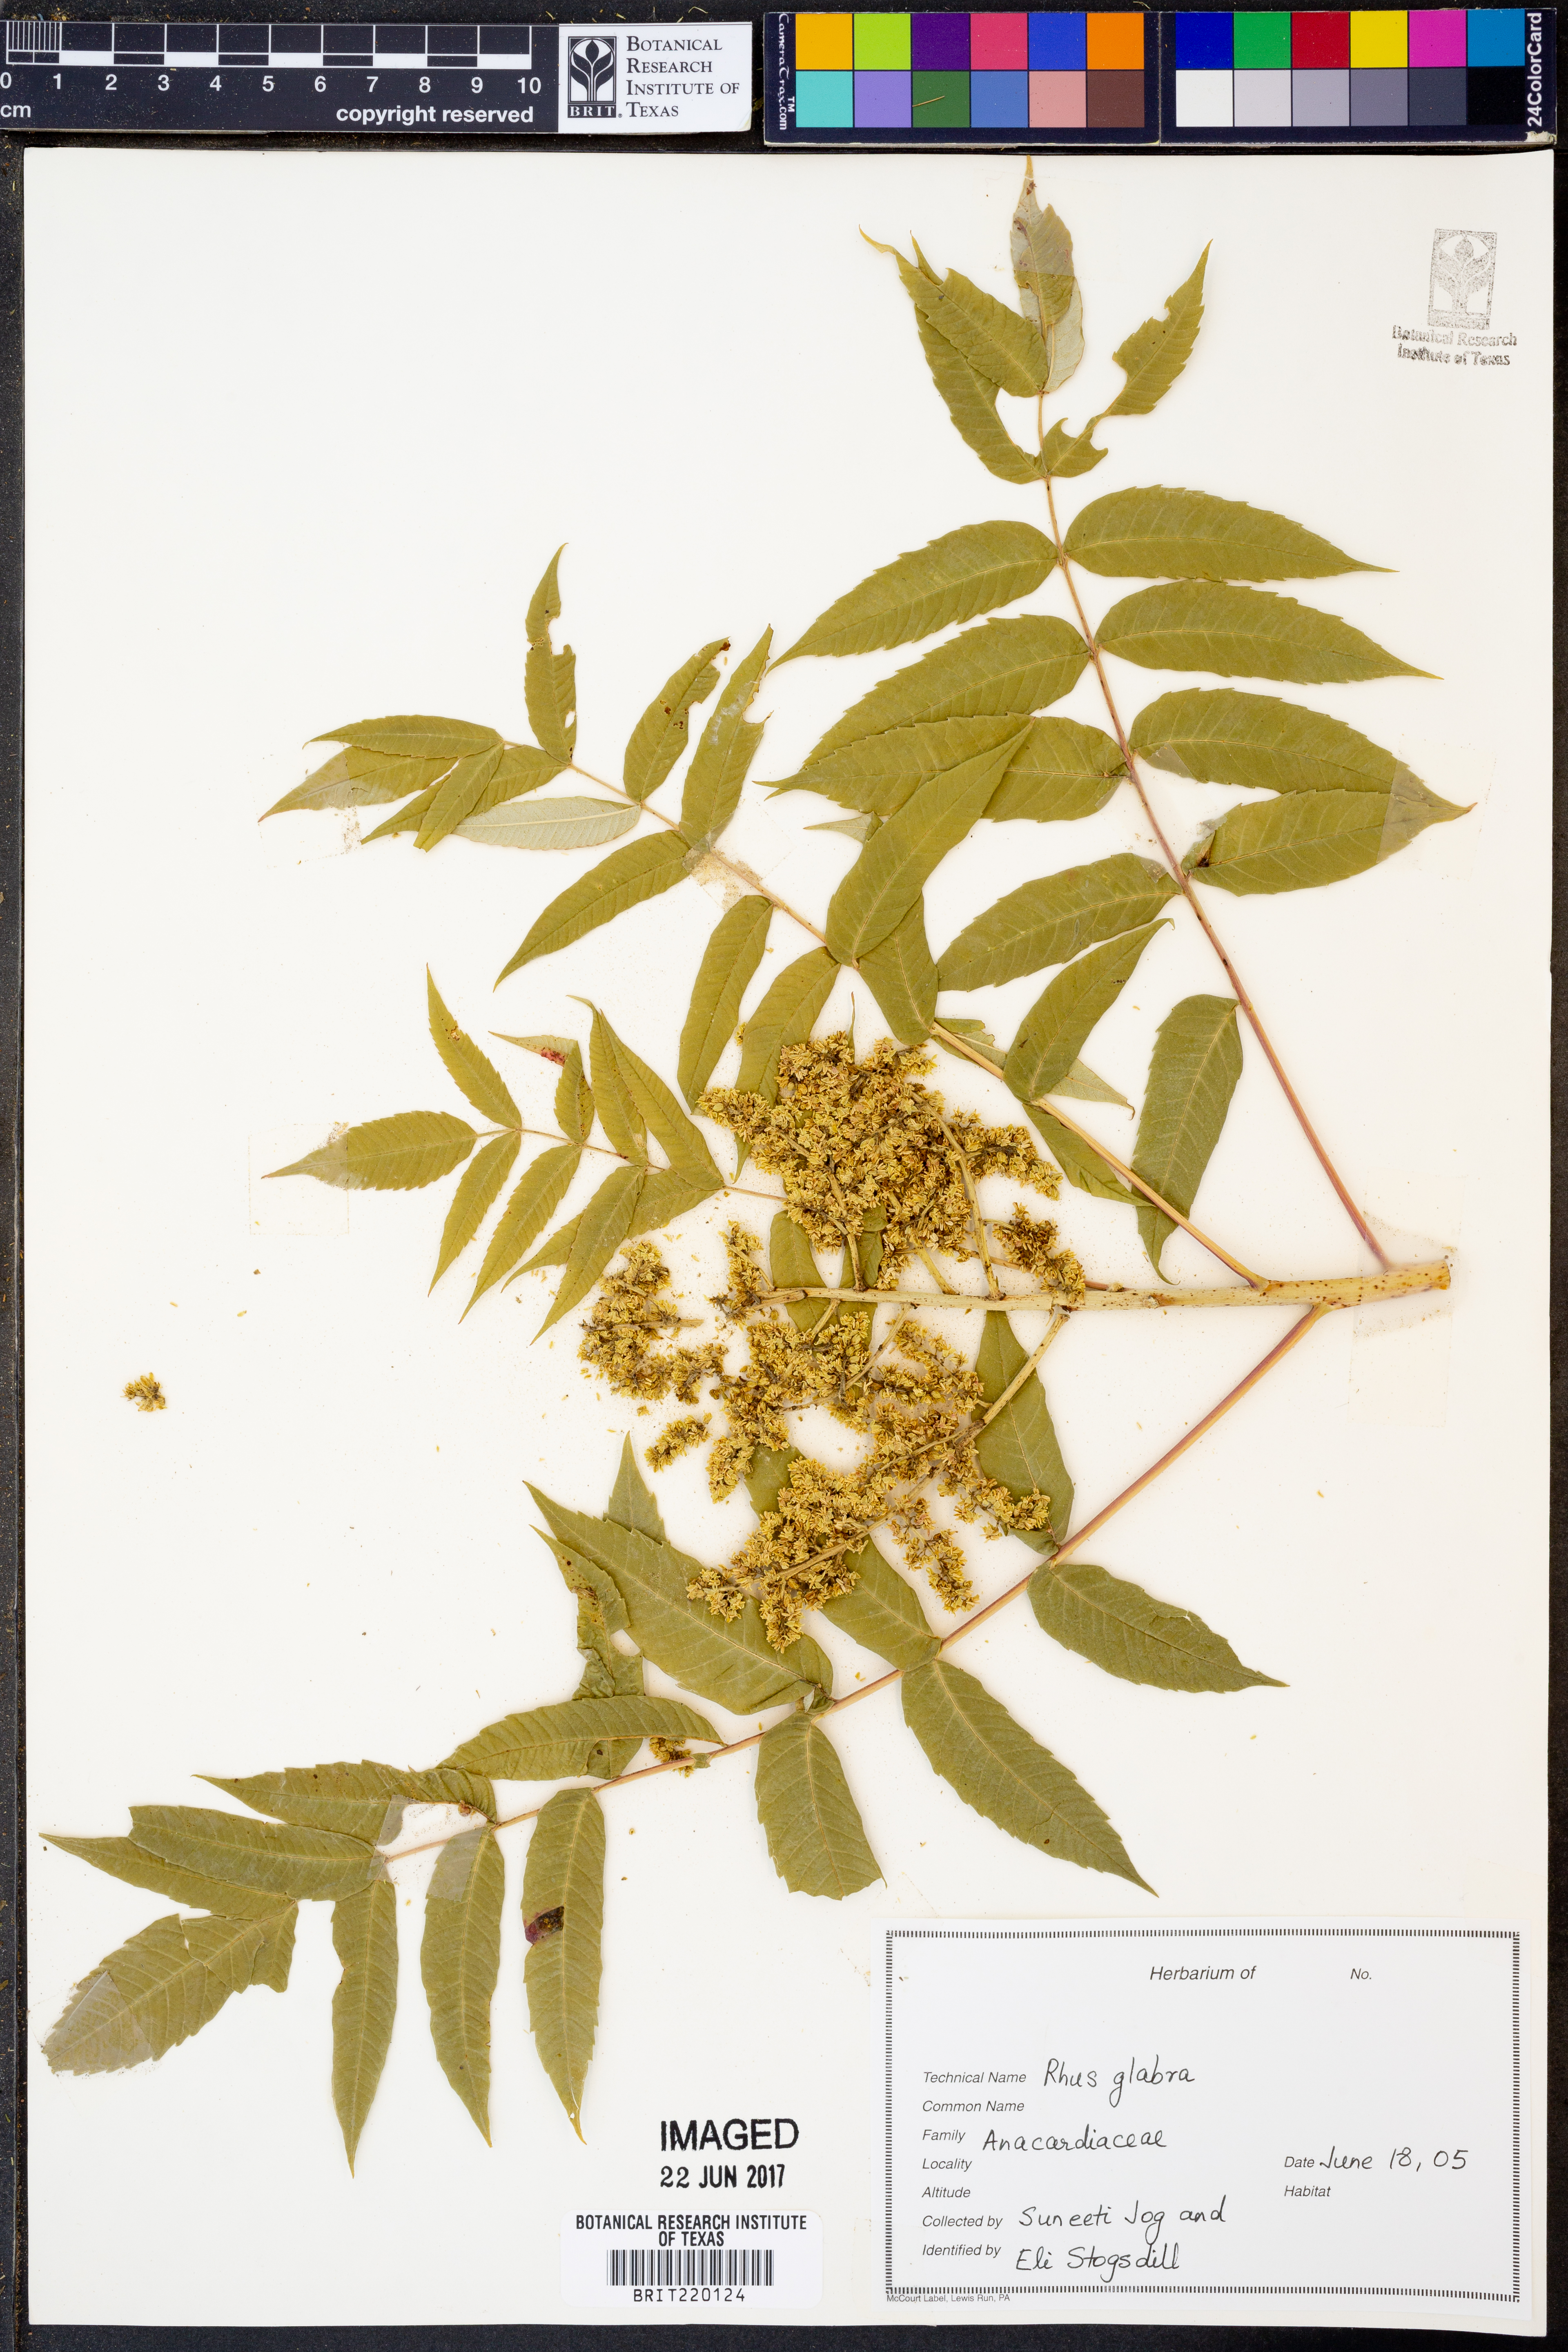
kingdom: Plantae
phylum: Tracheophyta
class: Magnoliopsida
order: Sapindales
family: Anacardiaceae
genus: Rhus
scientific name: Rhus glabra
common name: Scarlet sumac
